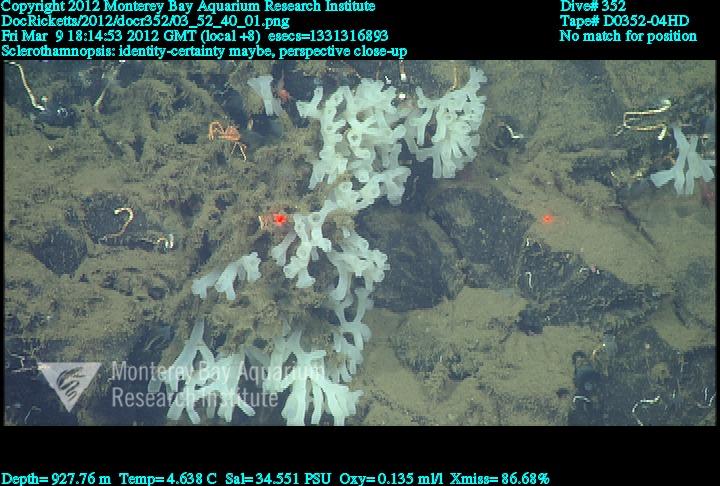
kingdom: Animalia
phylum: Porifera
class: Hexactinellida
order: Sceptrulophora
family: Tretodictyidae
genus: Sclerothamnopsis
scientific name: Sclerothamnopsis
